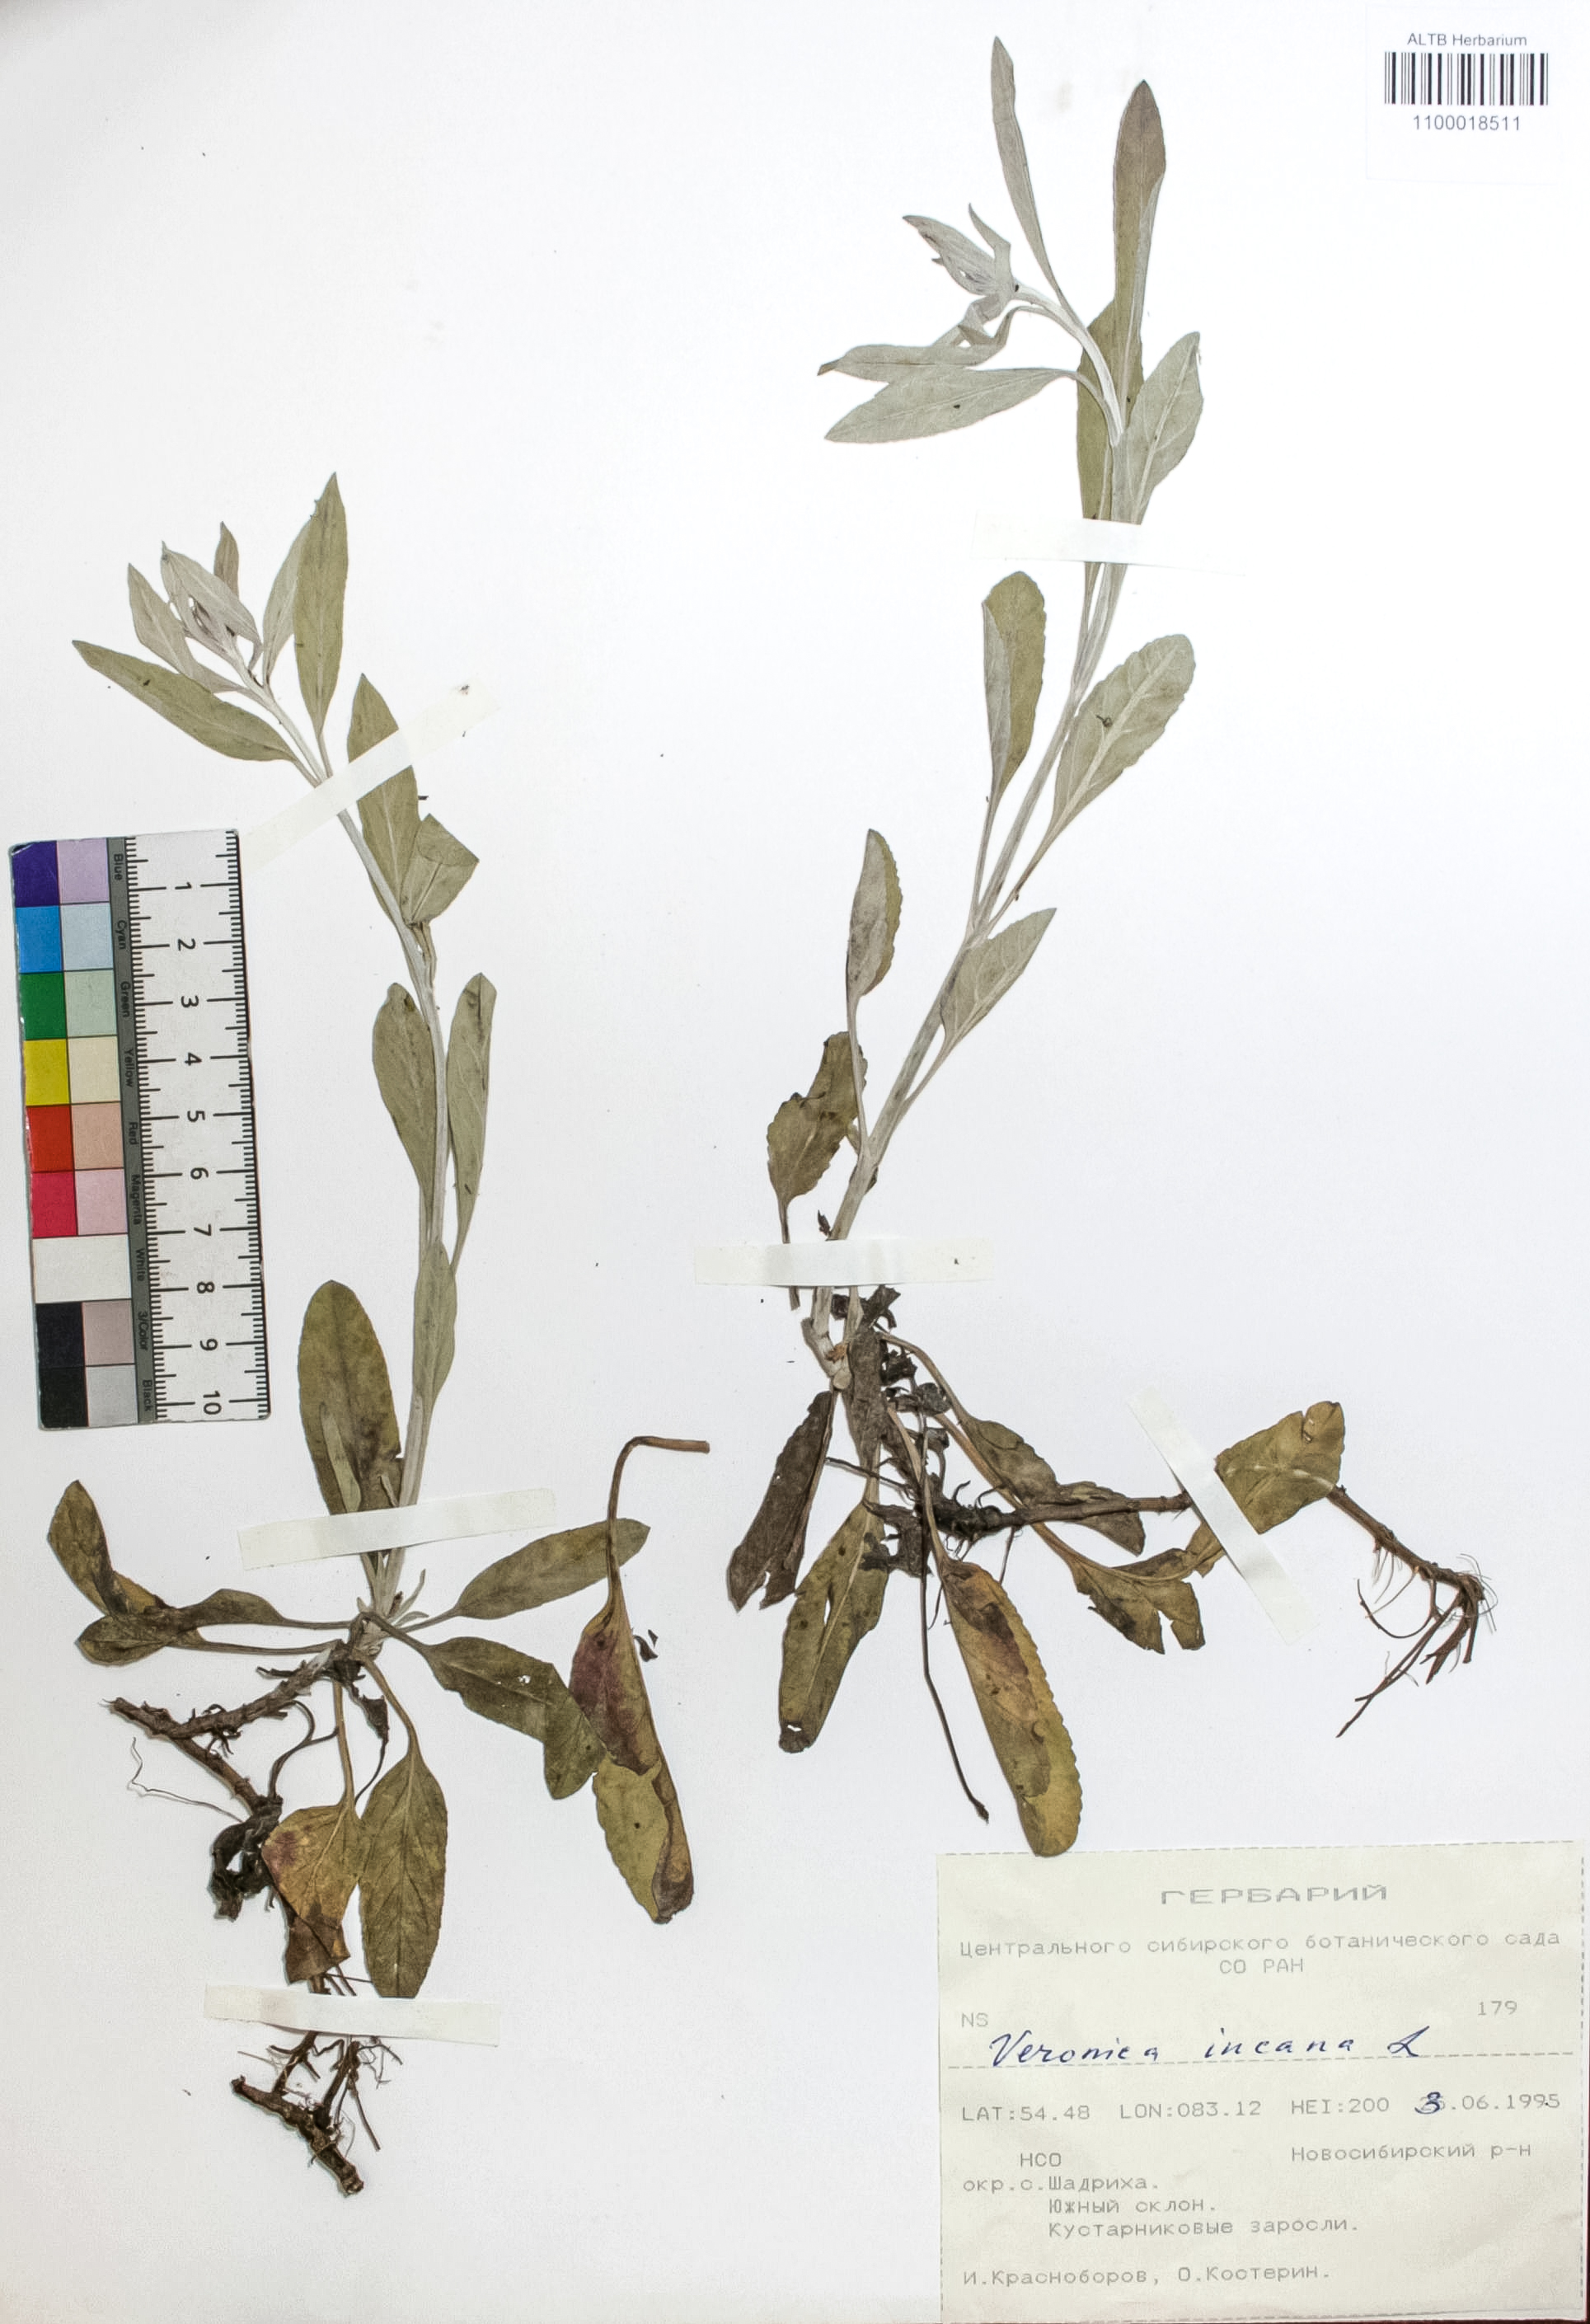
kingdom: Plantae
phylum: Tracheophyta
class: Magnoliopsida
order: Lamiales
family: Plantaginaceae
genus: Veronica
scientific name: Veronica incana
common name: Silver speedwell
